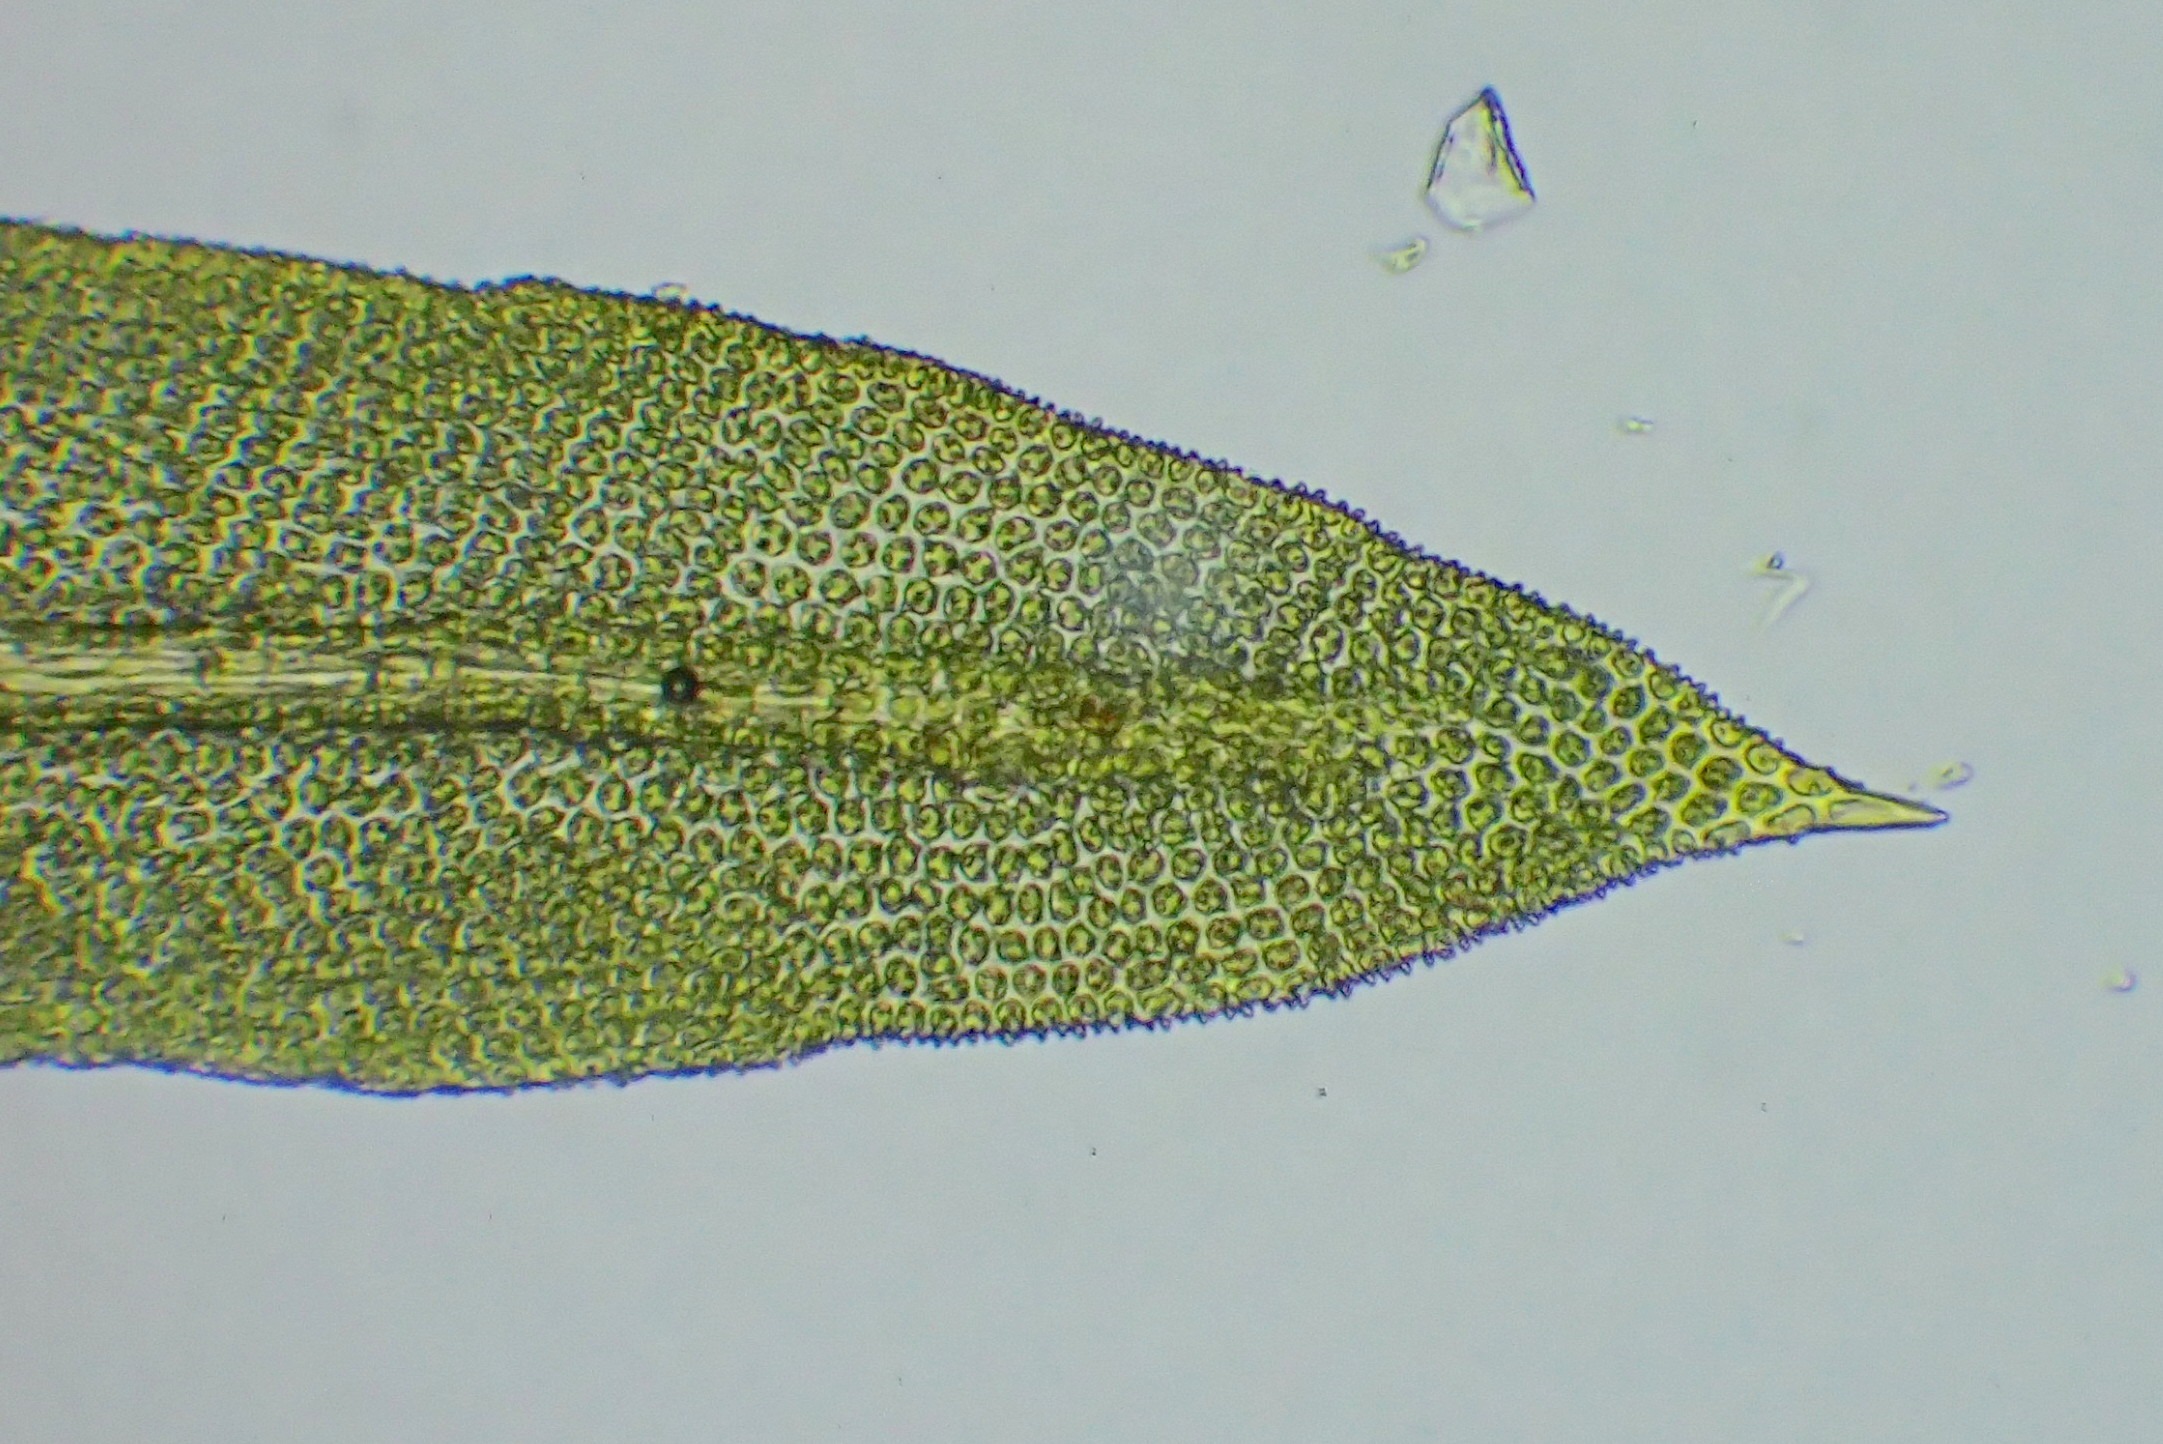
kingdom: Plantae
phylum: Bryophyta
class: Bryopsida
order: Orthotrichales
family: Orthotrichaceae
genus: Zygodon
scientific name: Zygodon viridissimus
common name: Grøn køllemos
